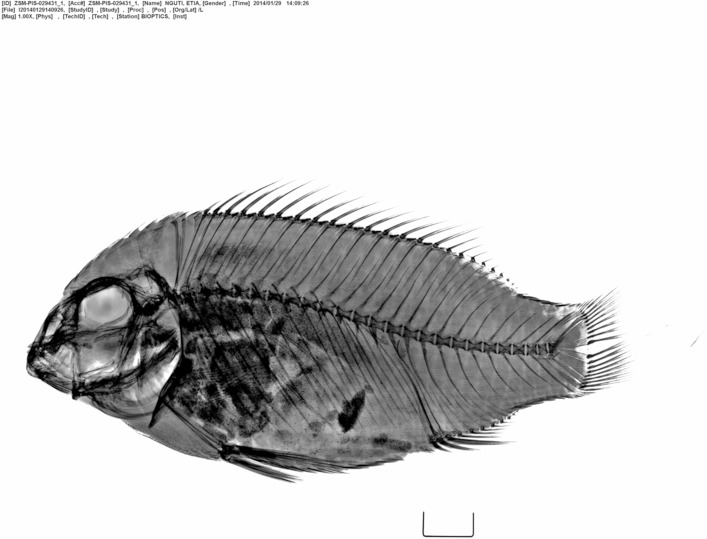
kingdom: Animalia
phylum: Chordata
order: Perciformes
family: Cichlidae
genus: Etia
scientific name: Etia nguti
